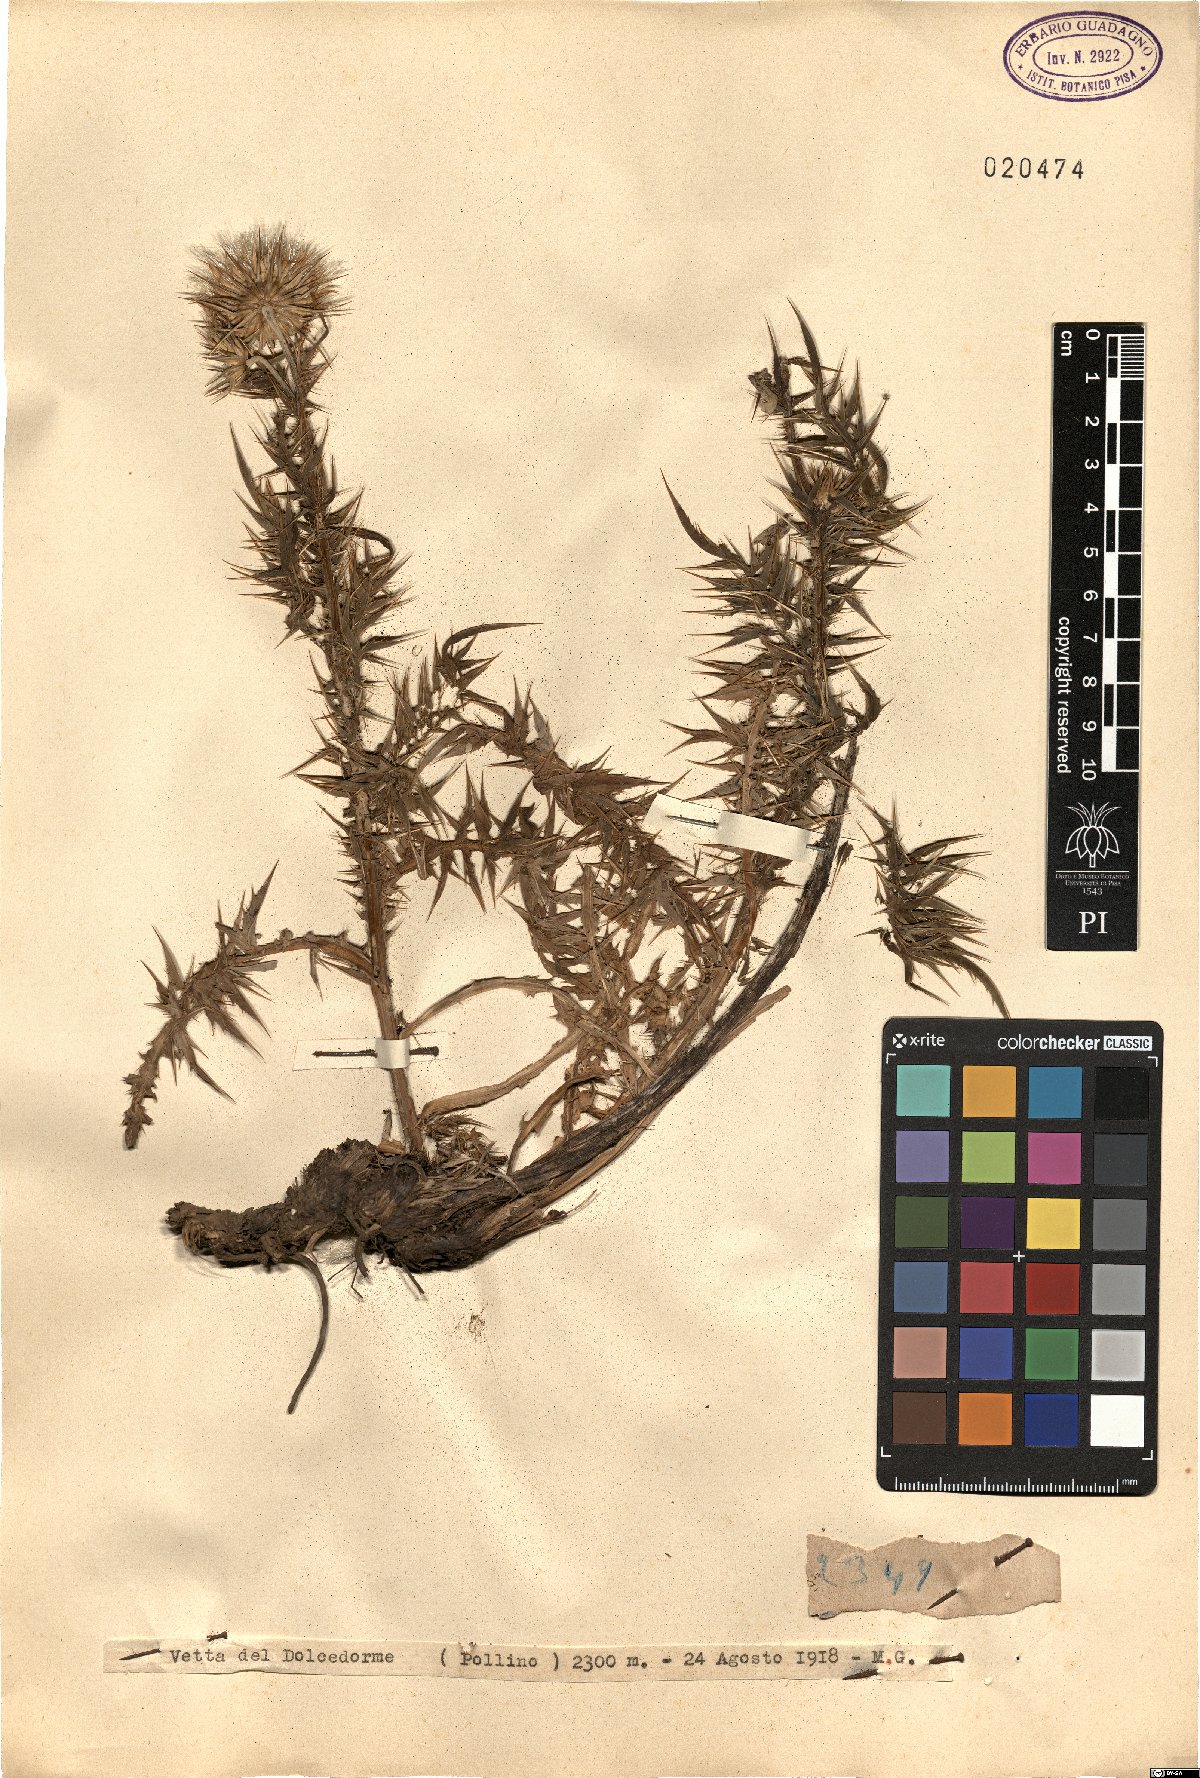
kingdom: Plantae
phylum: Tracheophyta
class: Magnoliopsida
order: Asterales
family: Asteraceae
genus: Carduus
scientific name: Carduus
